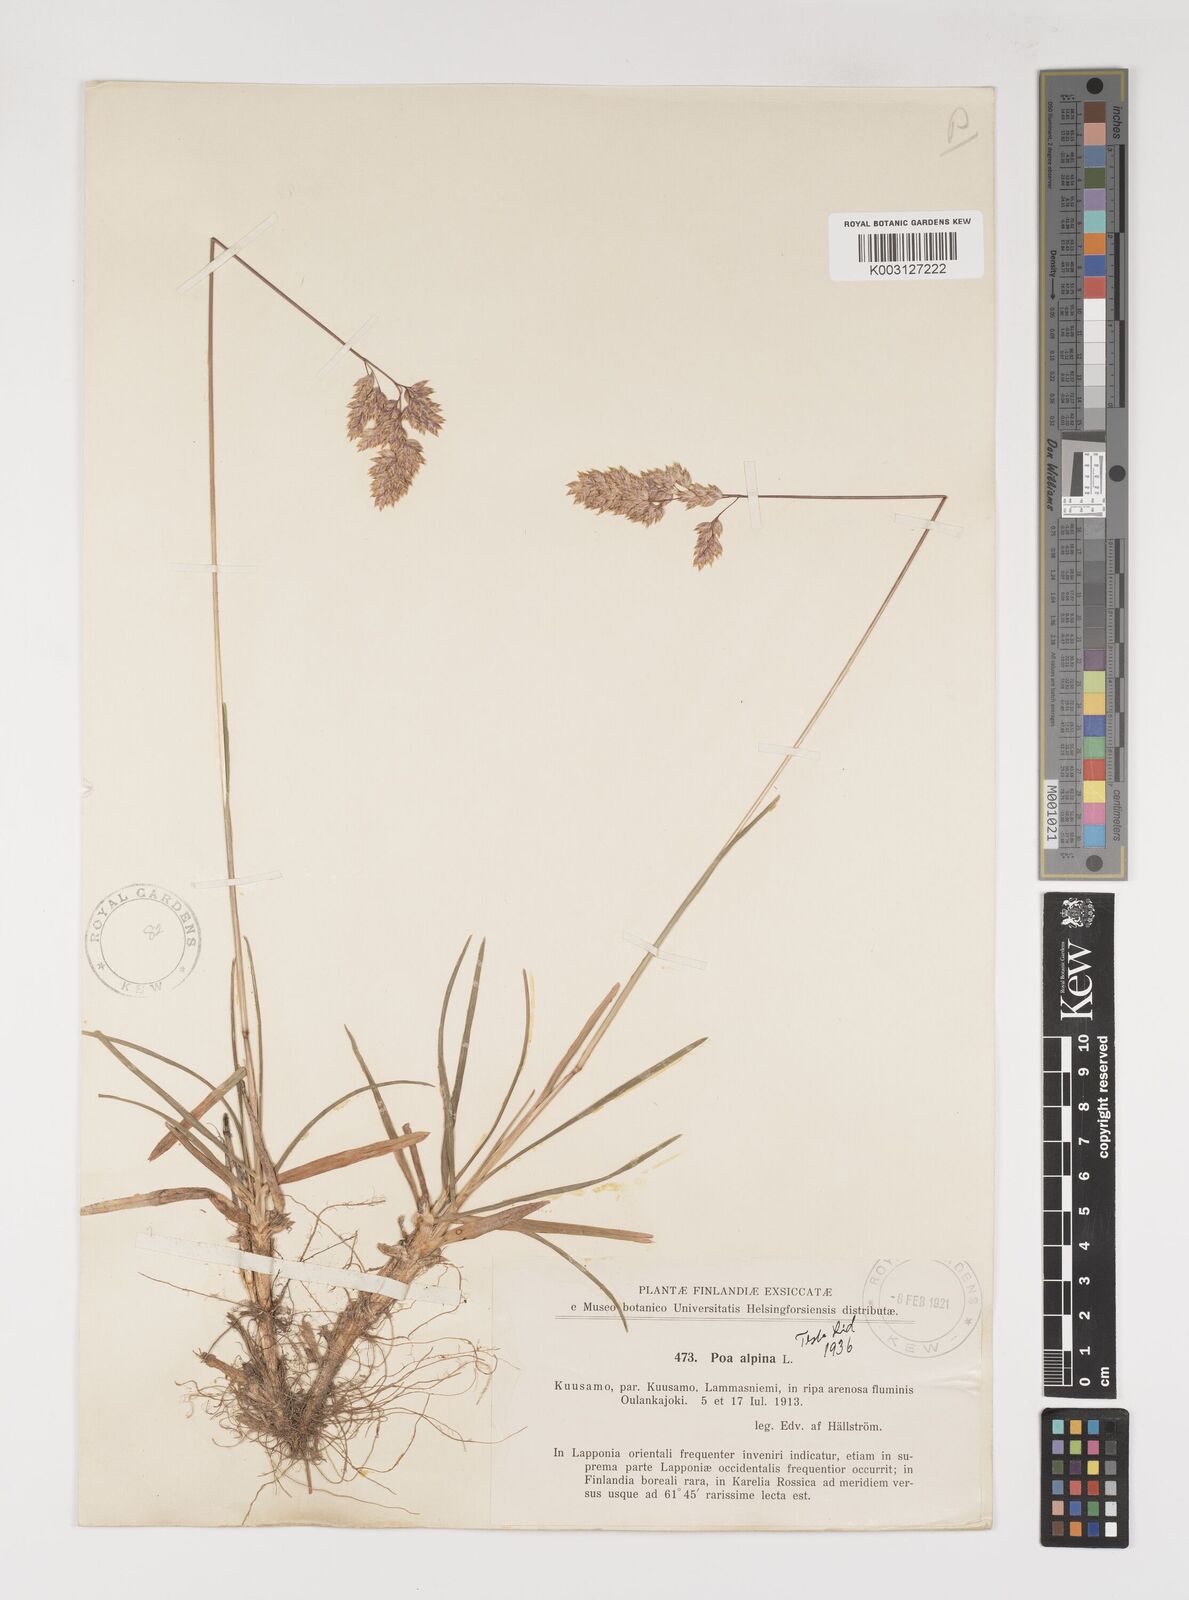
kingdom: Plantae
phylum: Tracheophyta
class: Liliopsida
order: Poales
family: Poaceae
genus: Poa
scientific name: Poa alpina
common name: Alpine bluegrass
